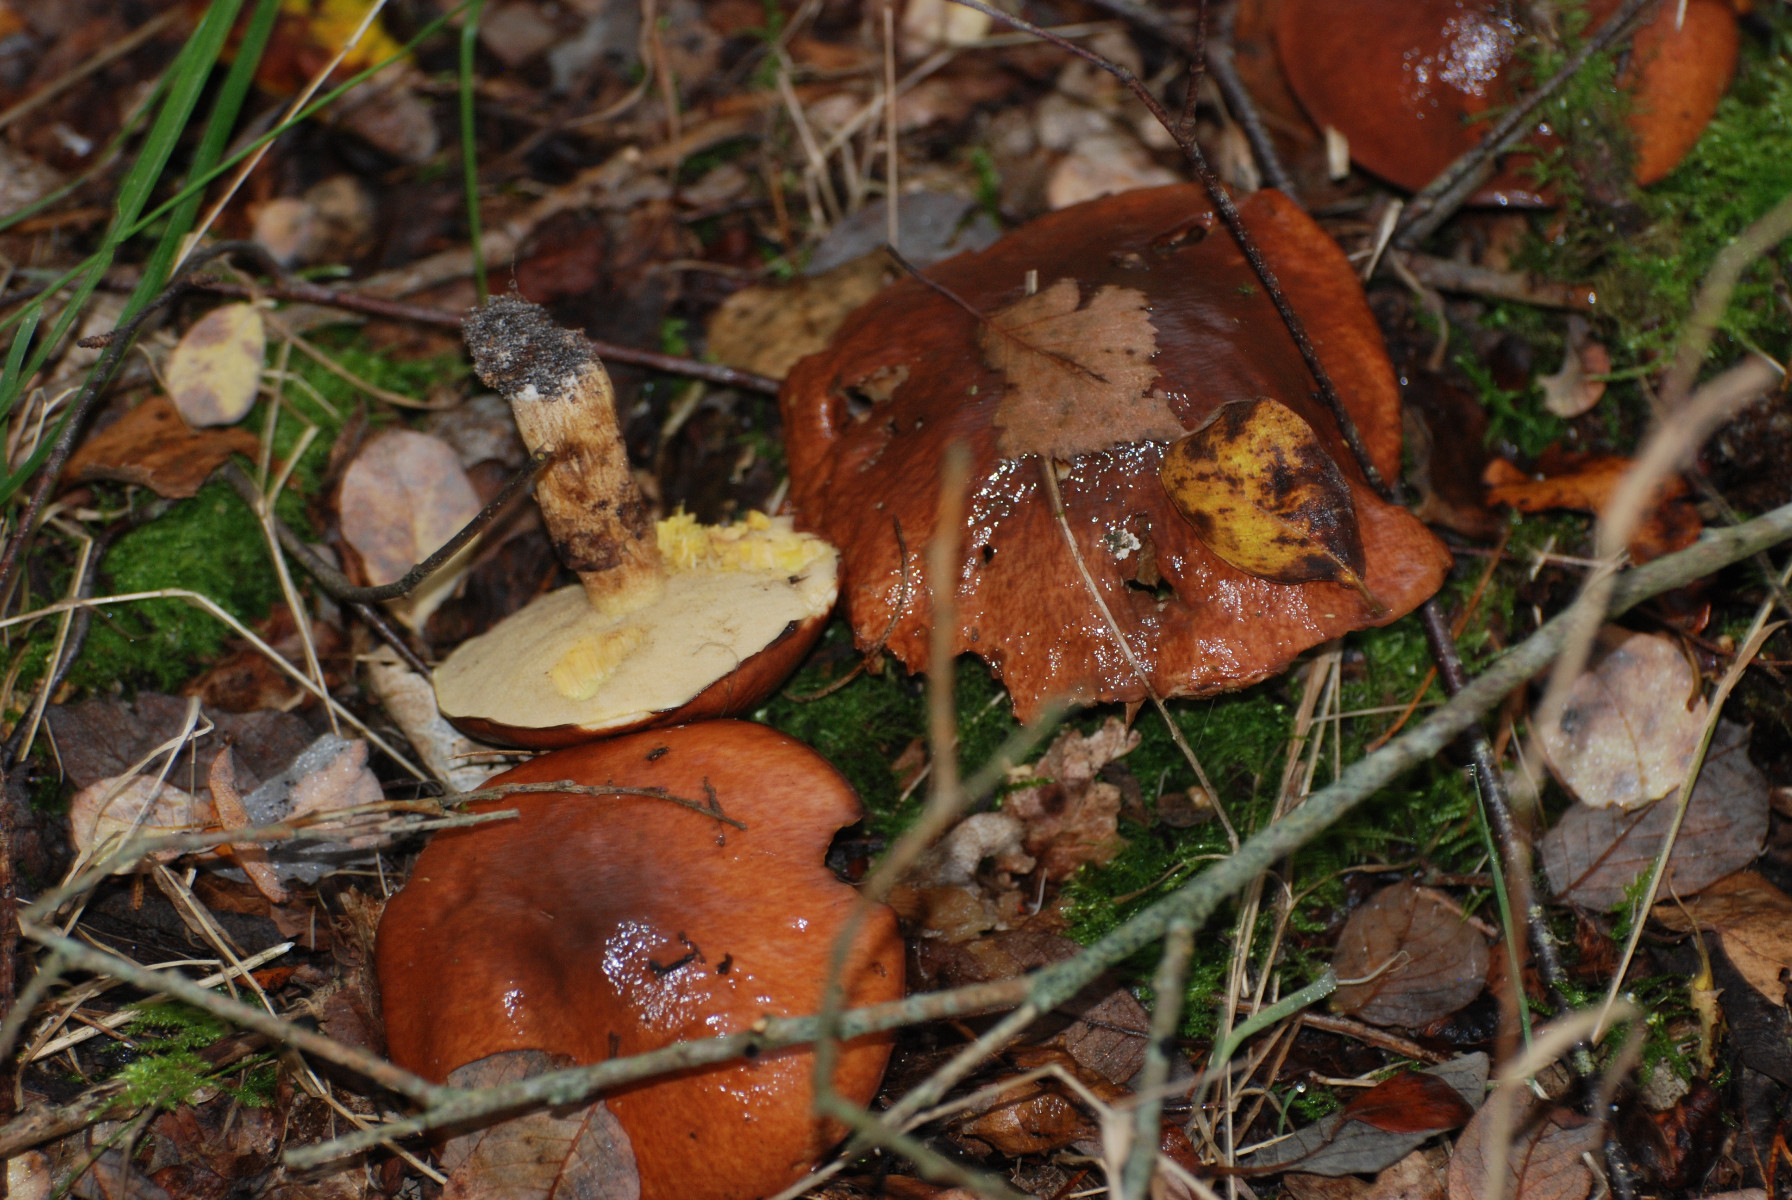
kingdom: Fungi
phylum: Basidiomycota
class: Agaricomycetes
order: Boletales
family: Suillaceae
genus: Suillus
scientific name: Suillus grevillei
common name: lærke-slimrørhat
